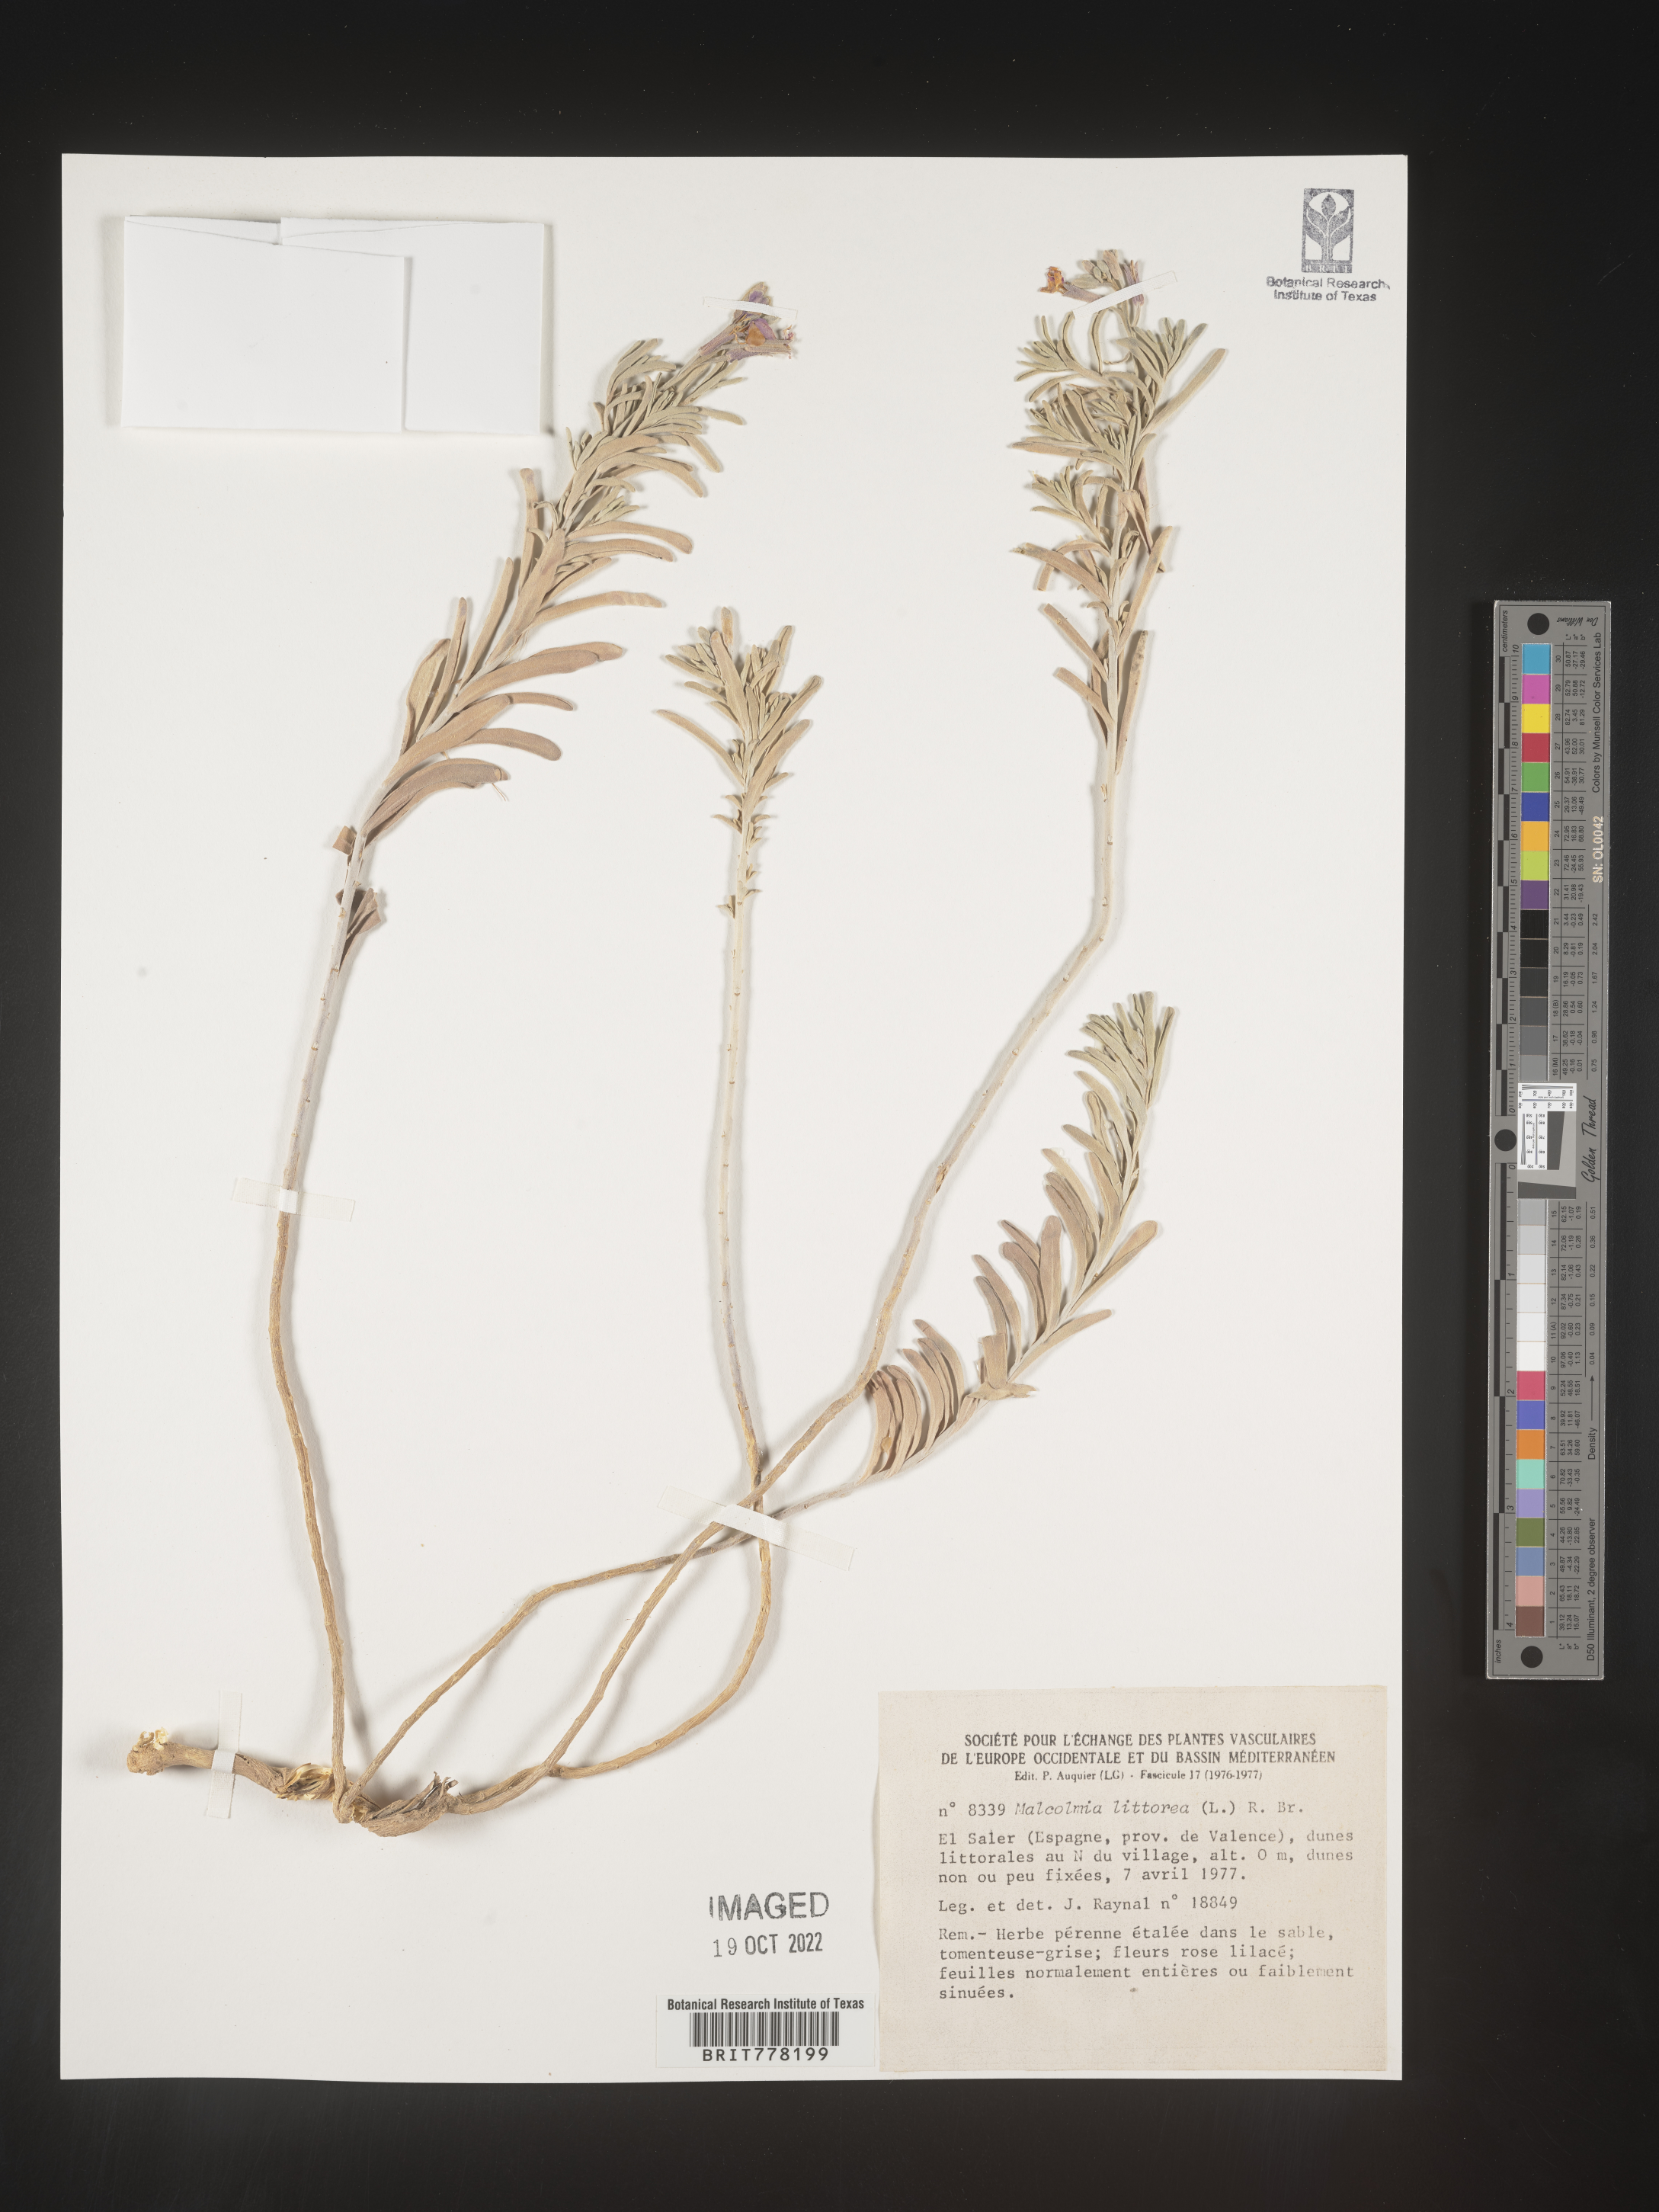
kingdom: Plantae
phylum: Tracheophyta
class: Magnoliopsida
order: Brassicales
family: Brassicaceae
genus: Malcolmia
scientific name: Malcolmia
